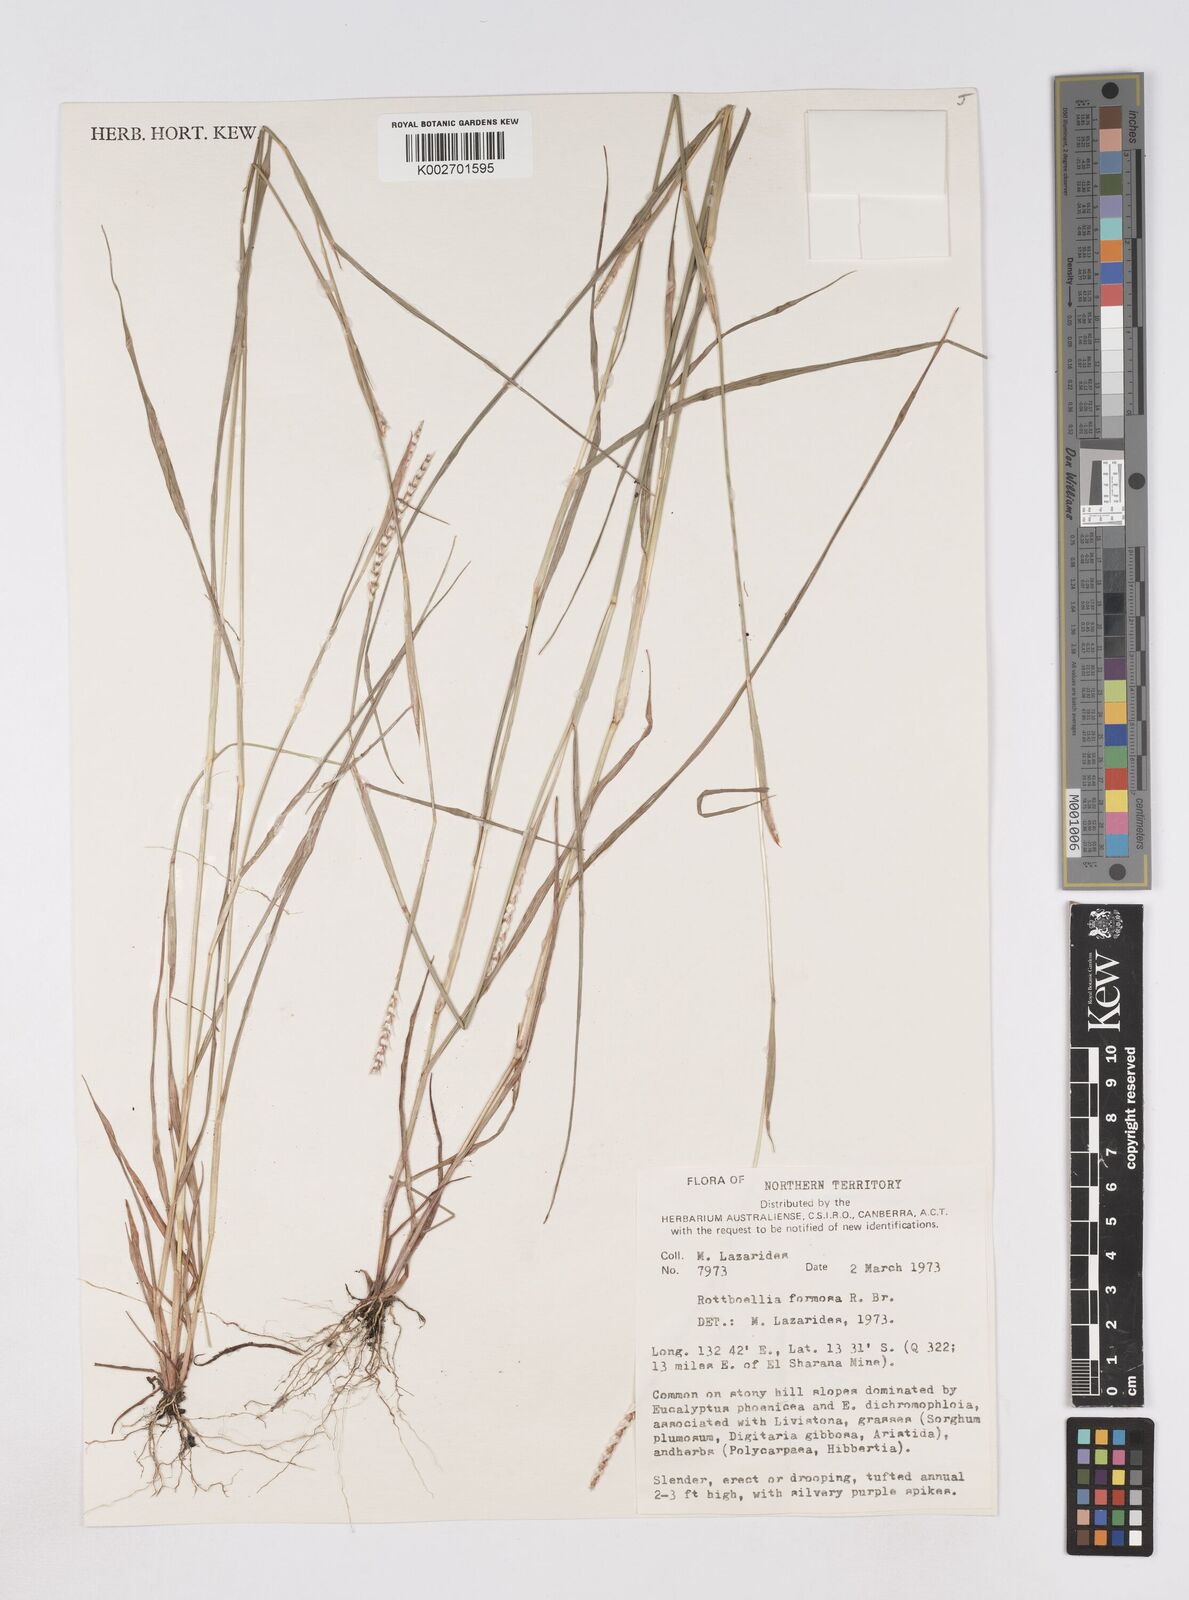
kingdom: Plantae
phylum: Tracheophyta
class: Liliopsida
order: Poales
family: Poaceae
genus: Heteropholis
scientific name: Heteropholis
